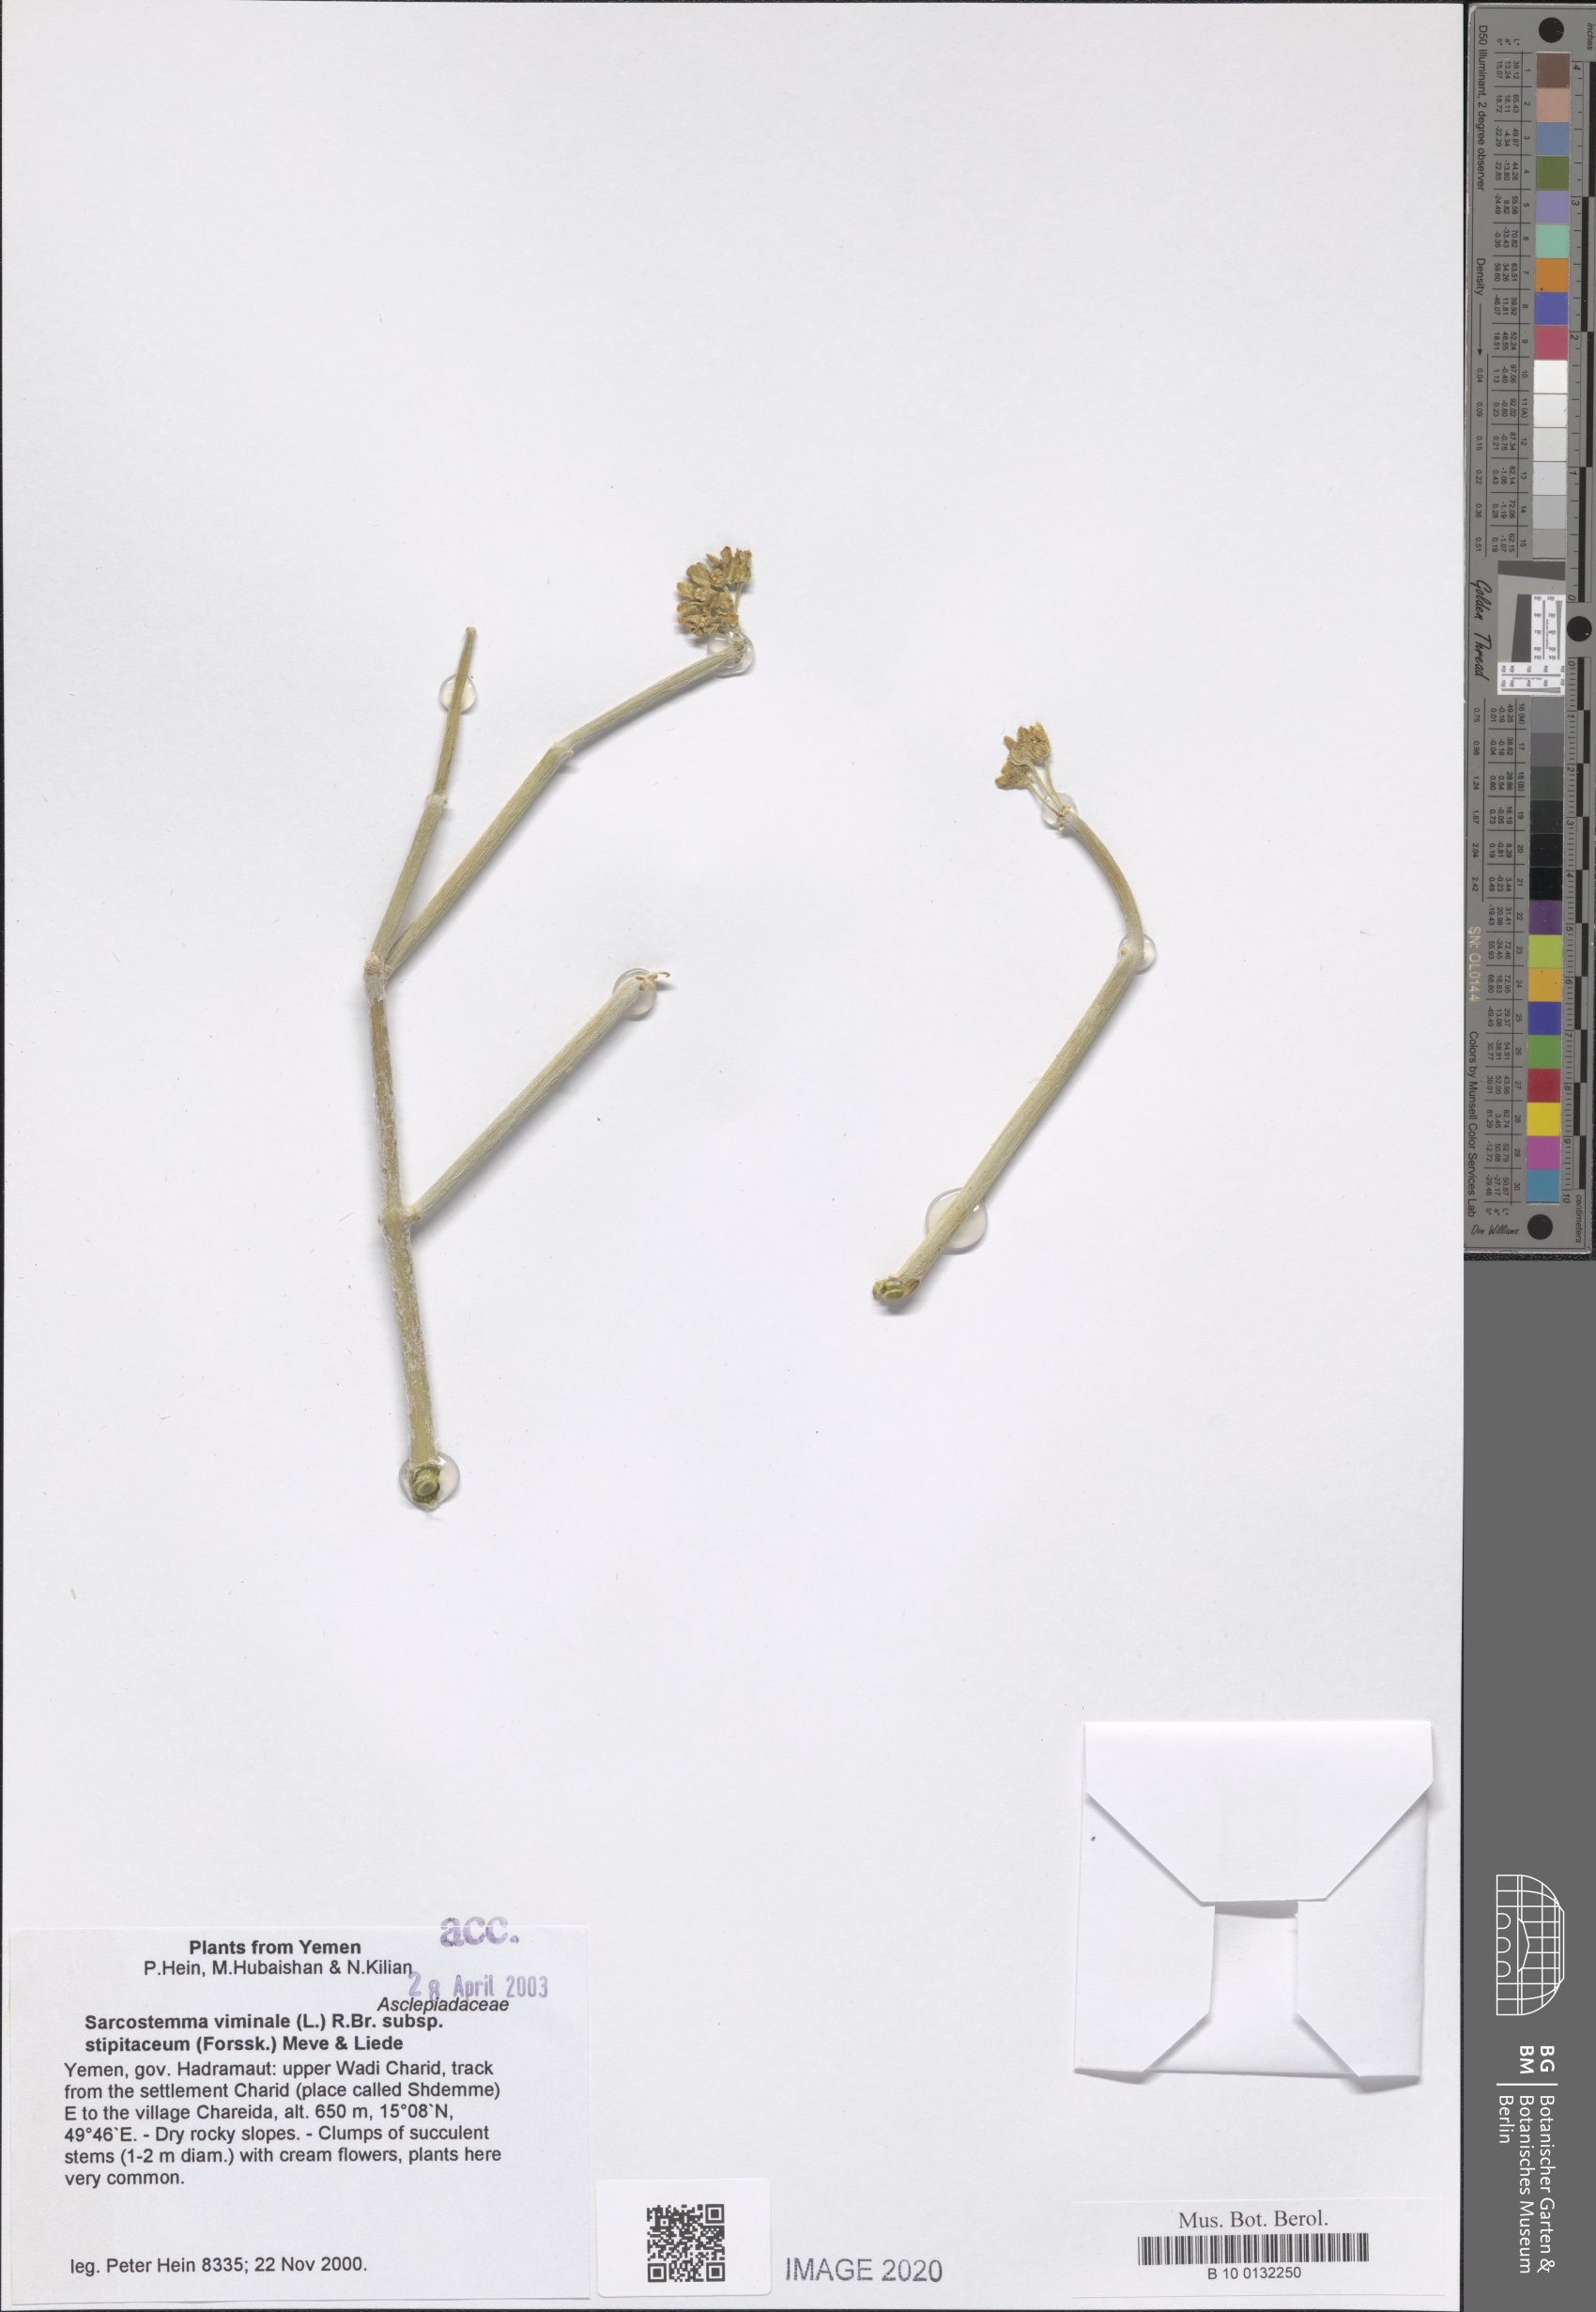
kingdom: Plantae
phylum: Tracheophyta
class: Magnoliopsida
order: Gentianales
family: Apocynaceae
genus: Cynanchum
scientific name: Cynanchum viminale
